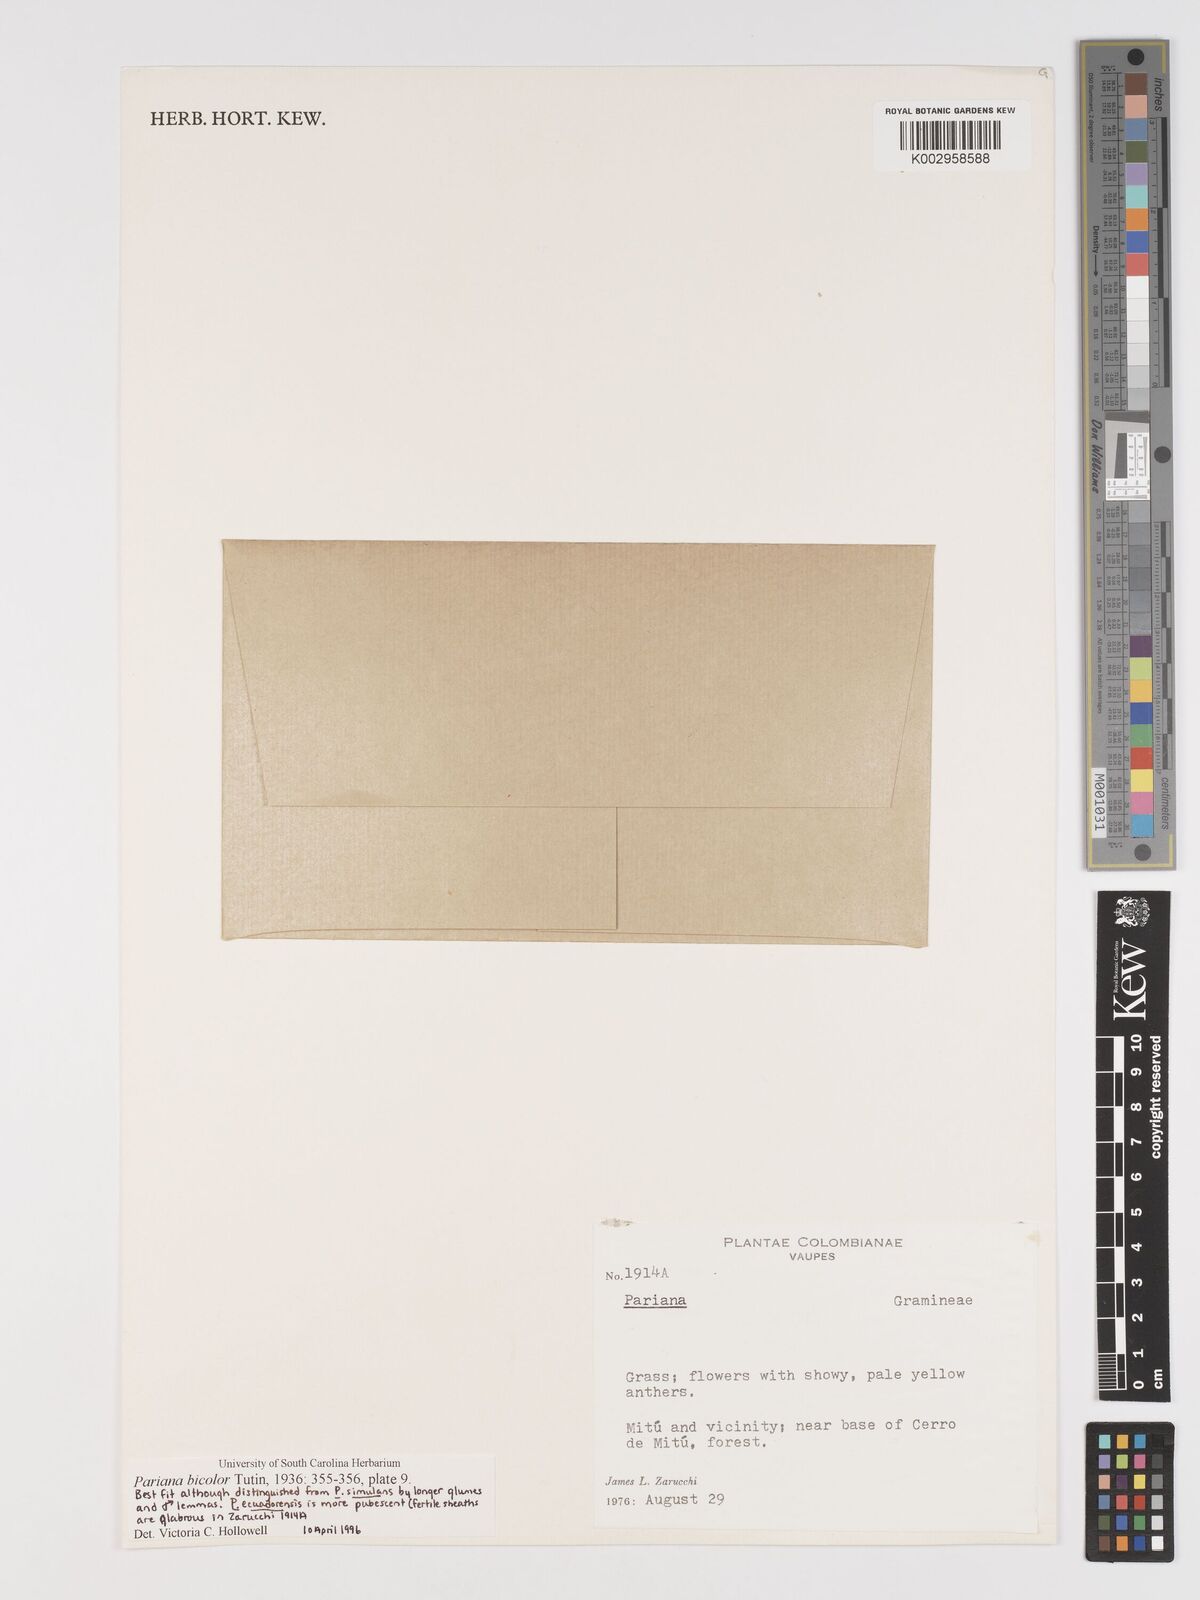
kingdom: Plantae
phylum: Tracheophyta
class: Liliopsida
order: Poales
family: Poaceae
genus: Pariana
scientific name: Pariana bicolor
